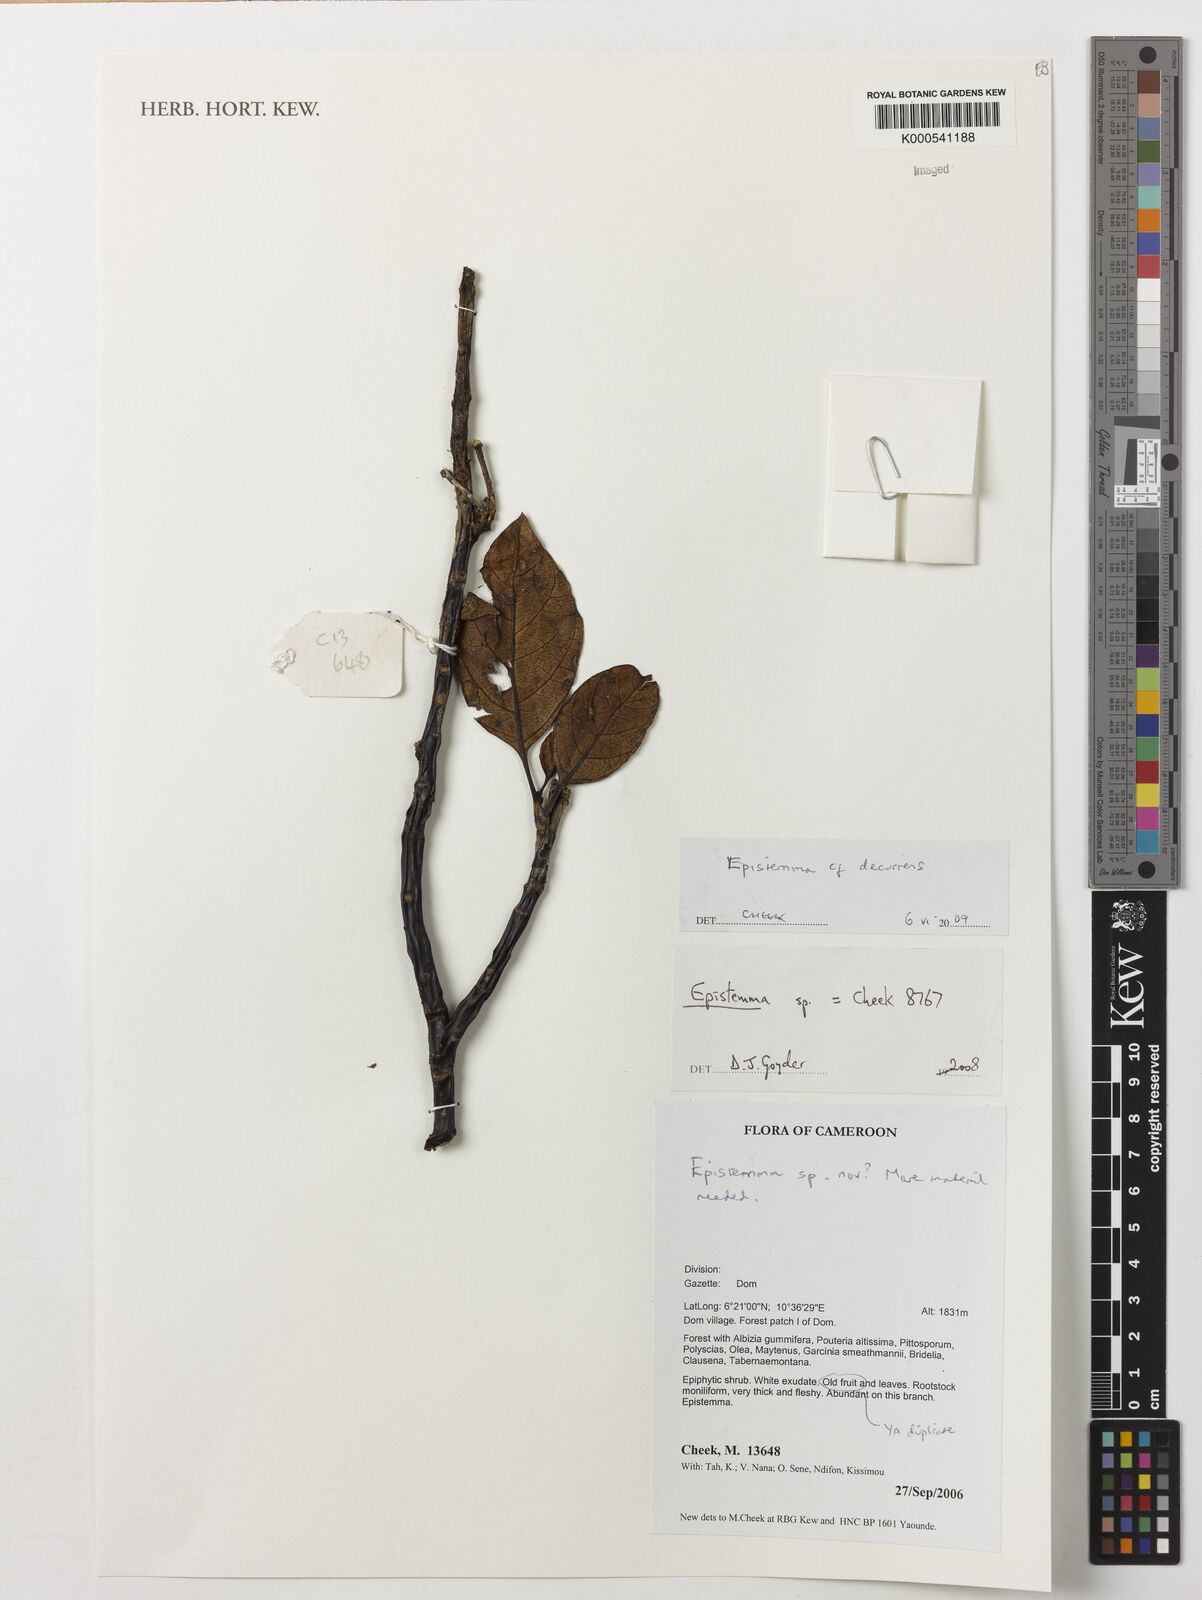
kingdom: Plantae
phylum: Tracheophyta
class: Magnoliopsida
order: Gentianales
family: Apocynaceae
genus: Epistemma
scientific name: Epistemma decurrens
